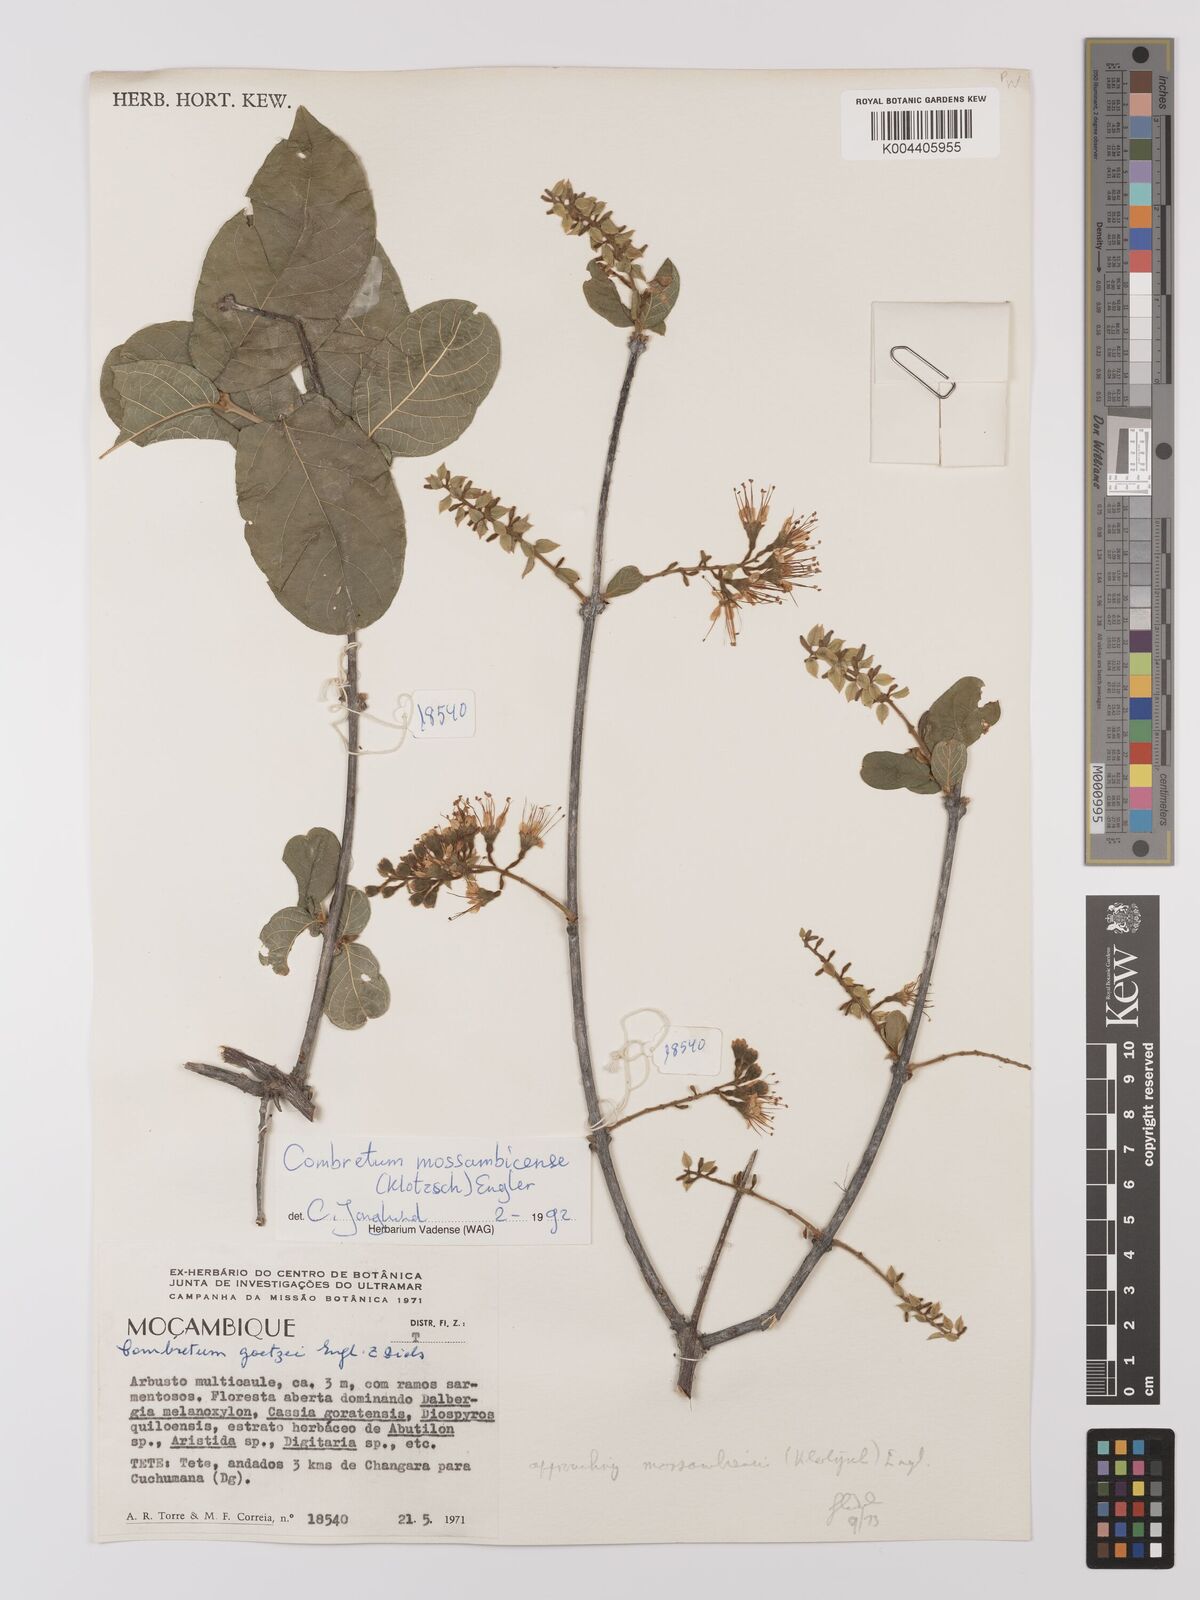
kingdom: Plantae
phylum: Tracheophyta
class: Magnoliopsida
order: Myrtales
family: Combretaceae
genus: Combretum
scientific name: Combretum mossambicense
